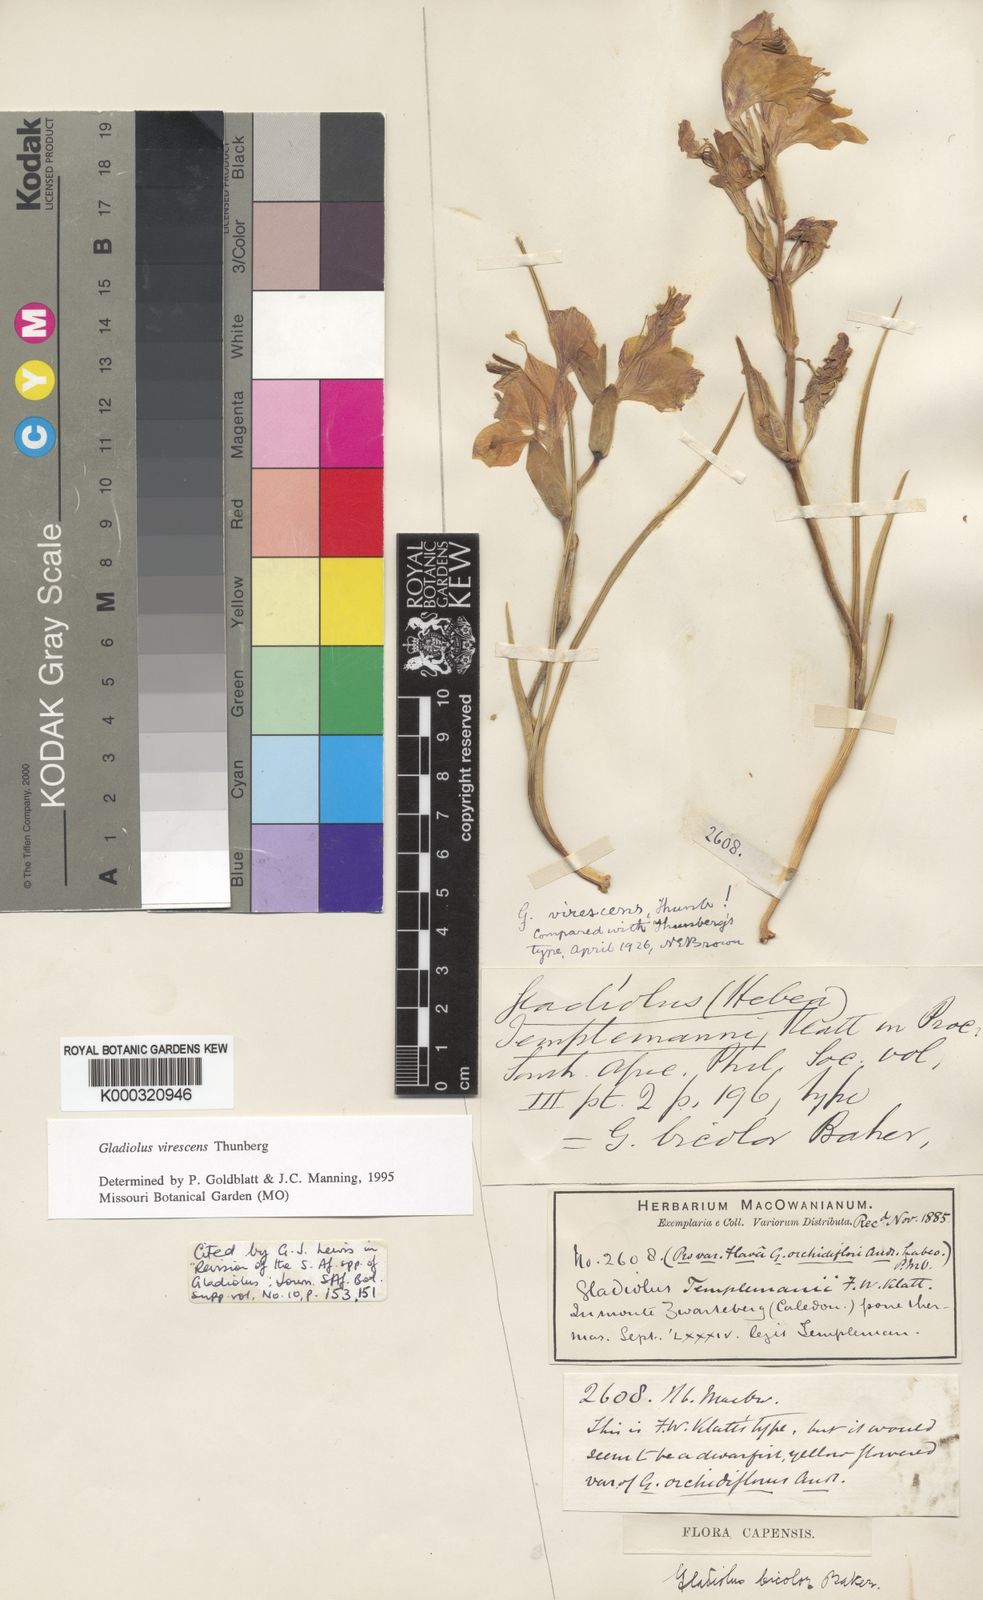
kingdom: Plantae
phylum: Tracheophyta
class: Liliopsida
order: Asparagales
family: Iridaceae
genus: Gladiolus
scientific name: Gladiolus virescens
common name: Yellow kalkoentjie
